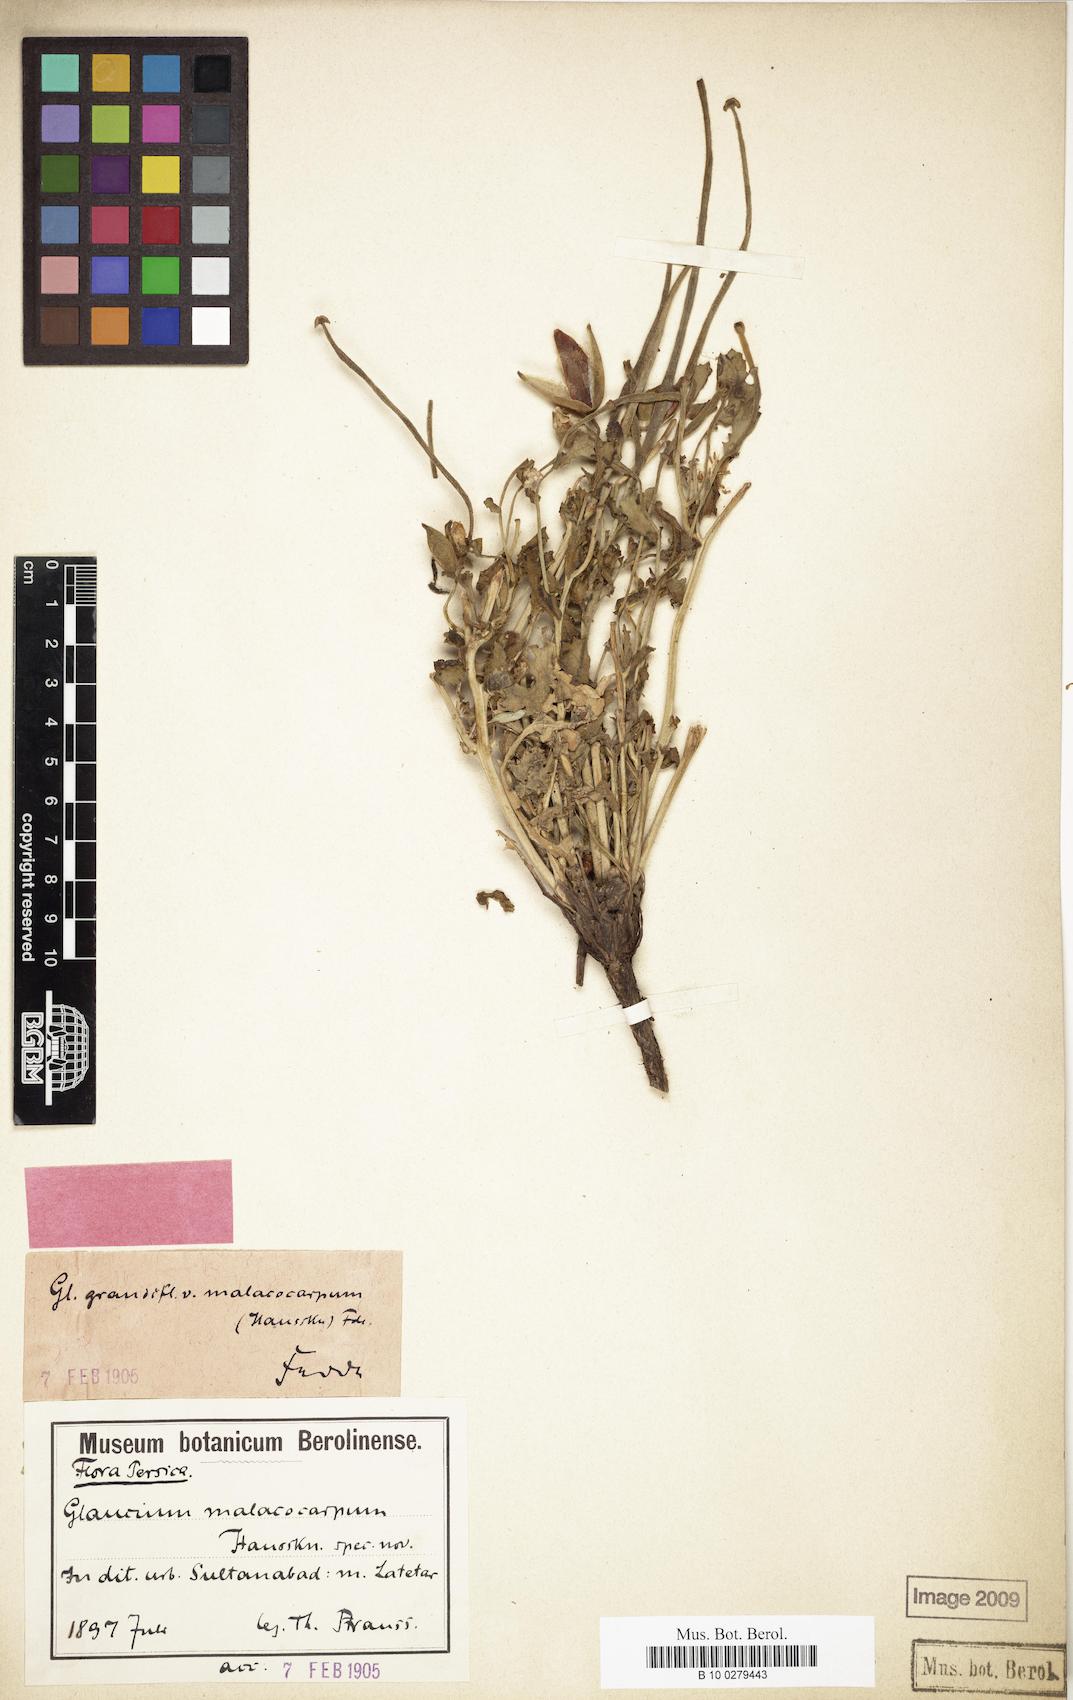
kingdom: Plantae
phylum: Tracheophyta
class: Magnoliopsida
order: Ranunculales
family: Papaveraceae
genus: Glaucium
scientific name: Glaucium grandiflorum
